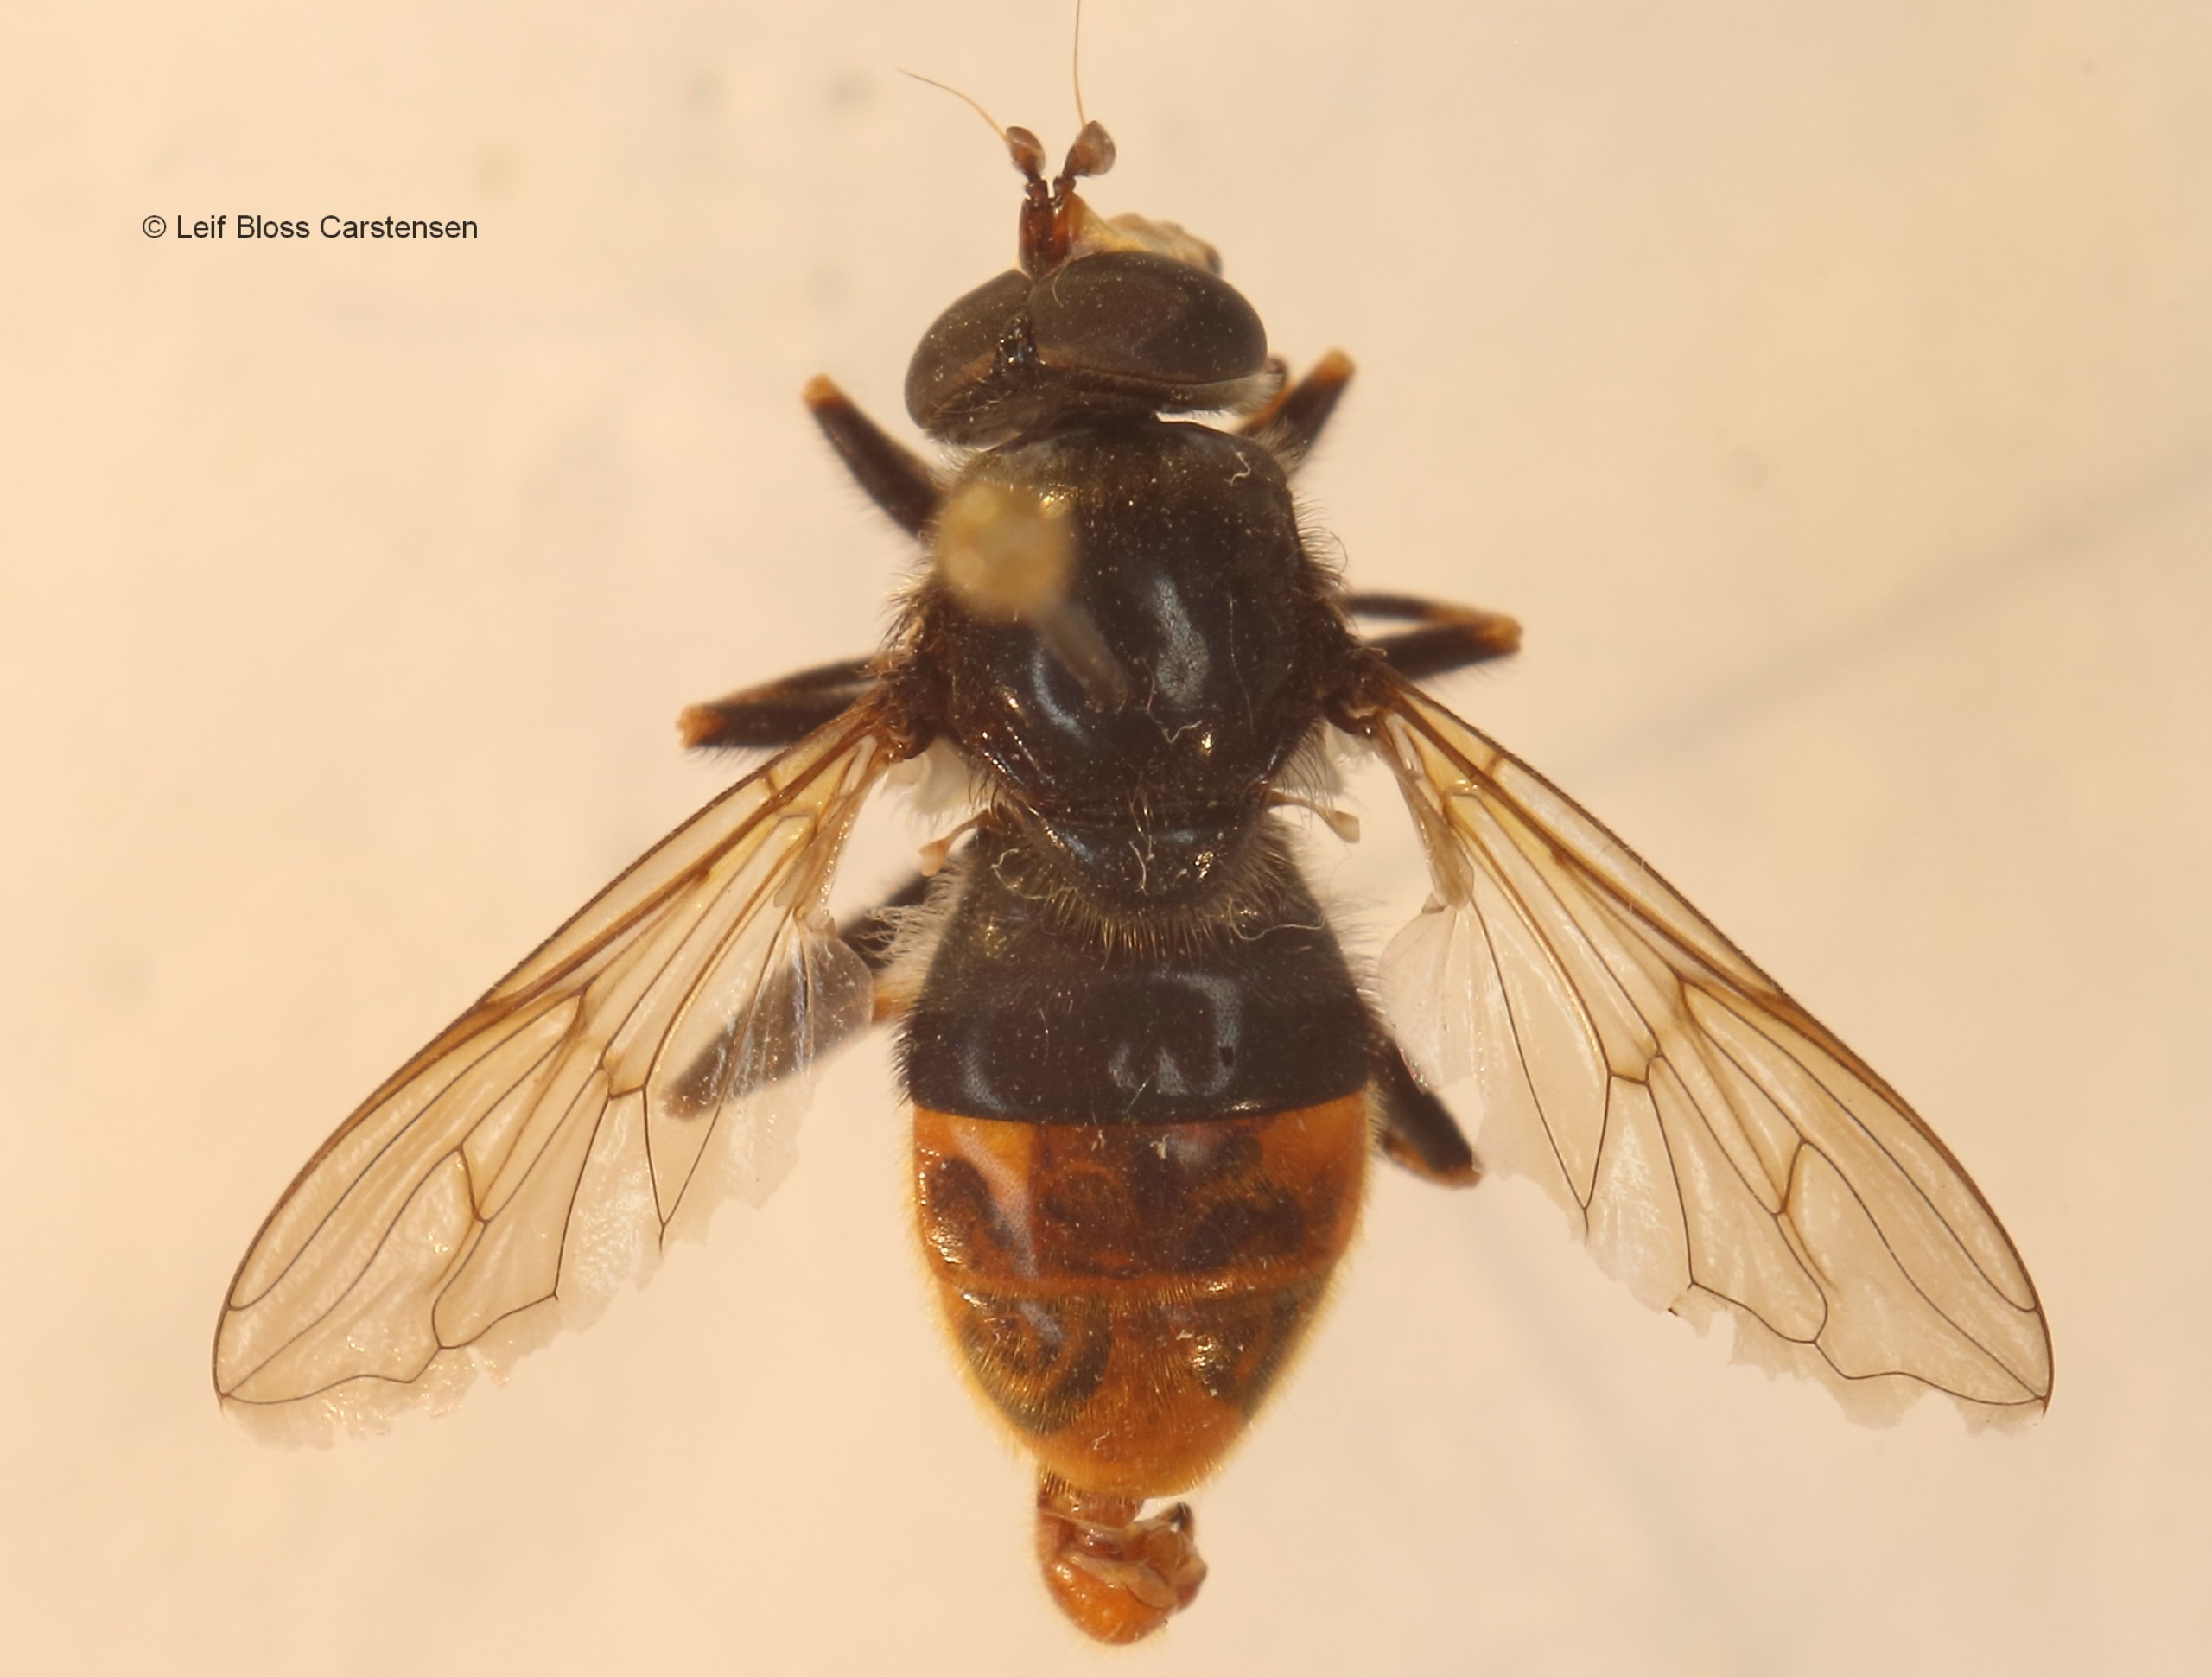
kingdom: Animalia
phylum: Arthropoda
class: Insecta
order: Diptera
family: Syrphidae
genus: Blera
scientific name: Blera fallax
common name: Stub-svirreflue
